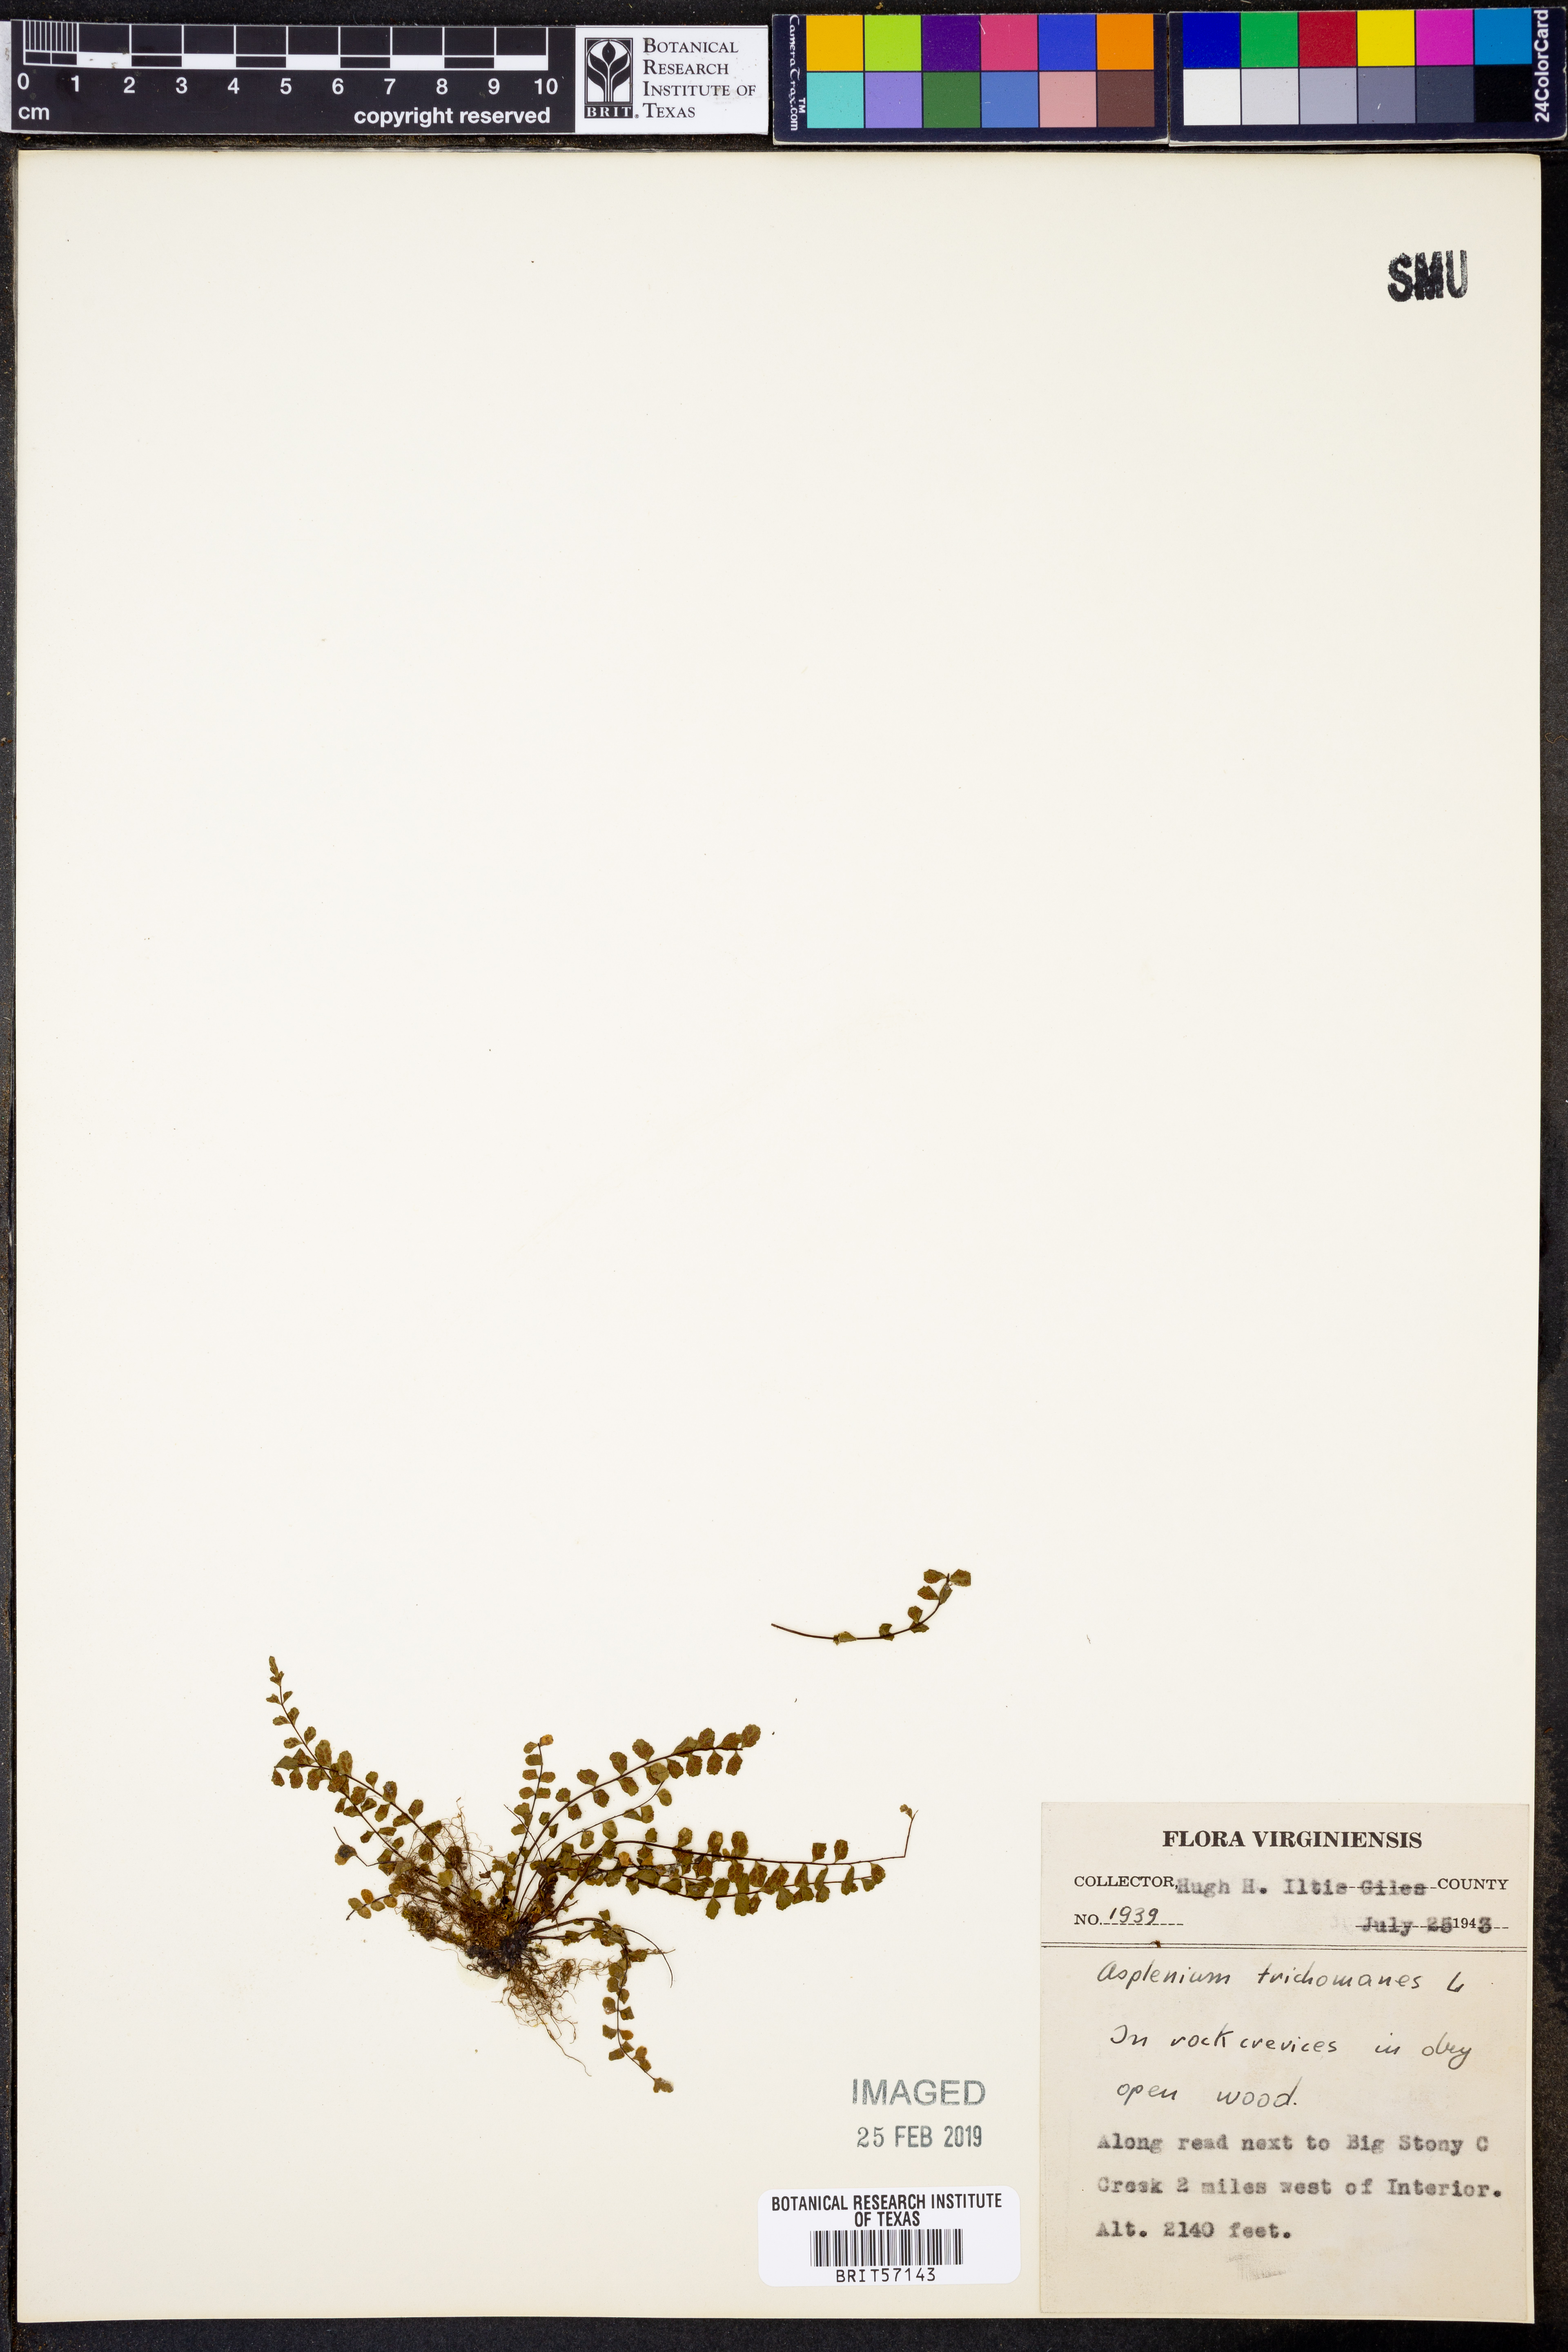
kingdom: Plantae
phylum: Tracheophyta
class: Polypodiopsida
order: Polypodiales
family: Aspleniaceae
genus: Asplenium
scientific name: Asplenium trichomanes
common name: Maidenhair spleenwort
